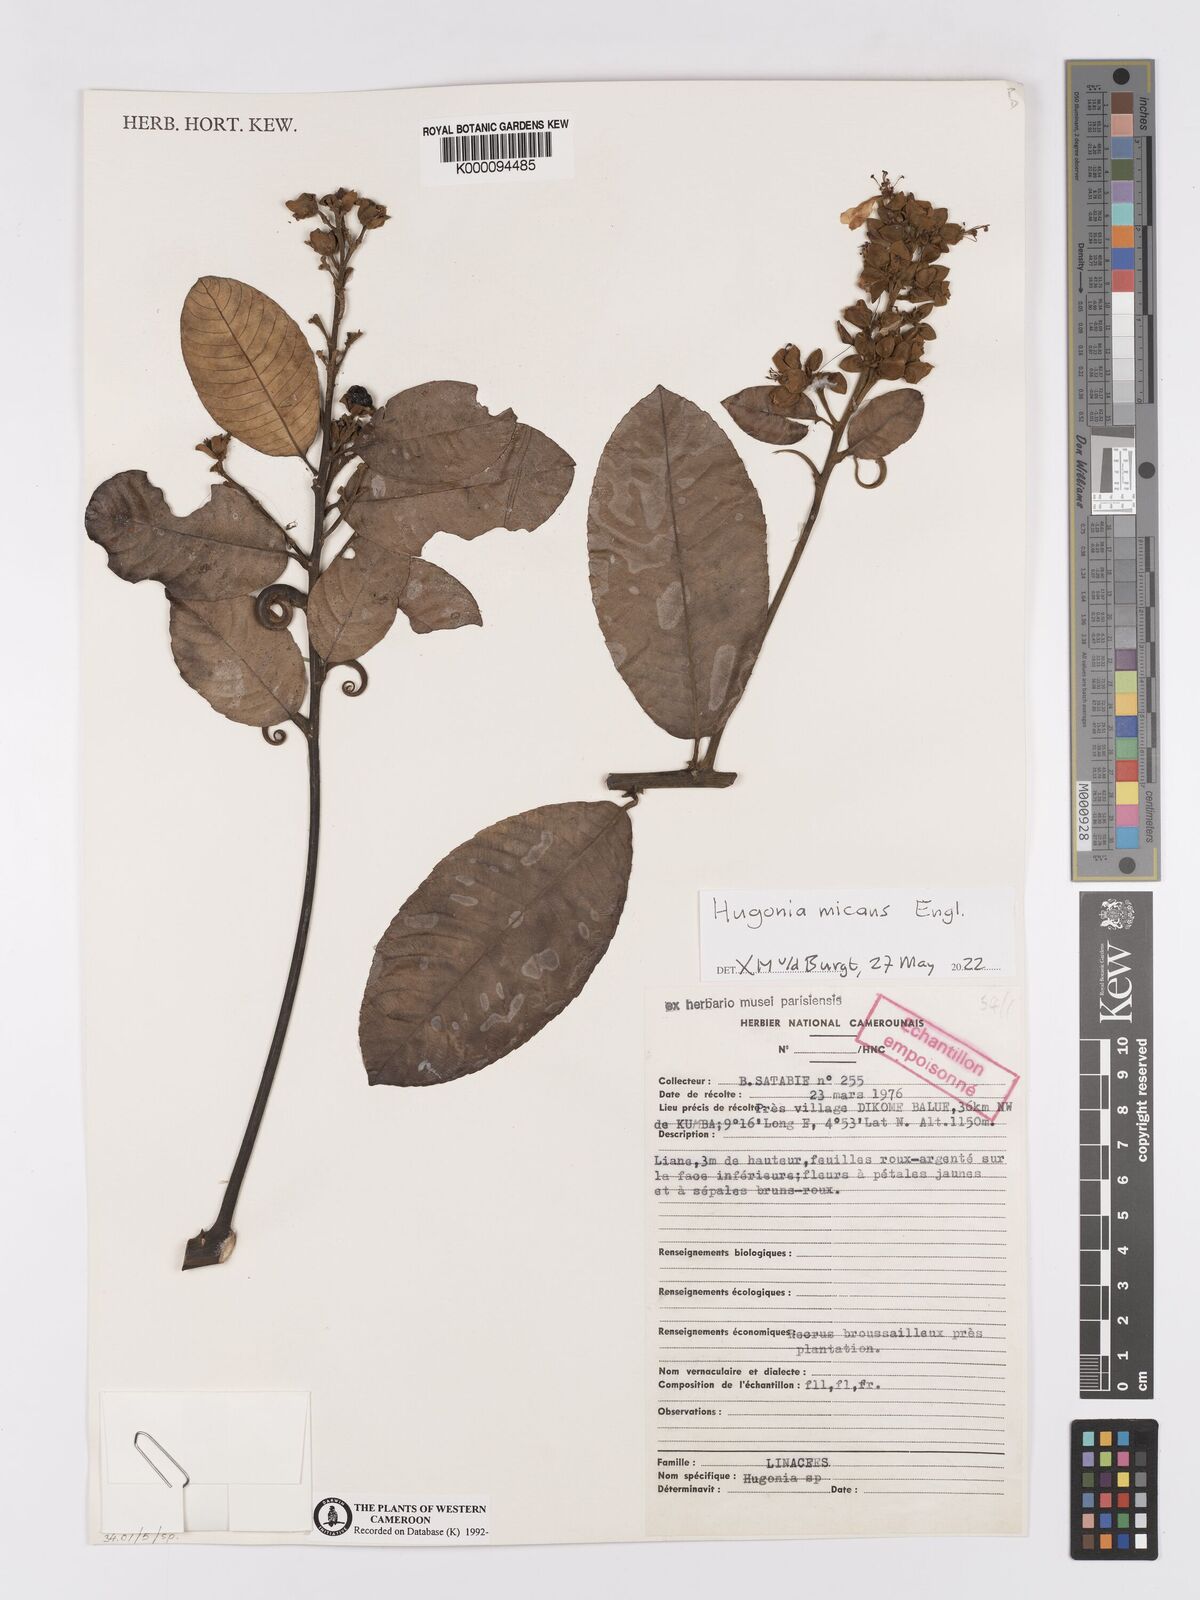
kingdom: Plantae
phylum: Tracheophyta
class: Magnoliopsida
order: Malpighiales
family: Linaceae
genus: Hugonia
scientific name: Hugonia
